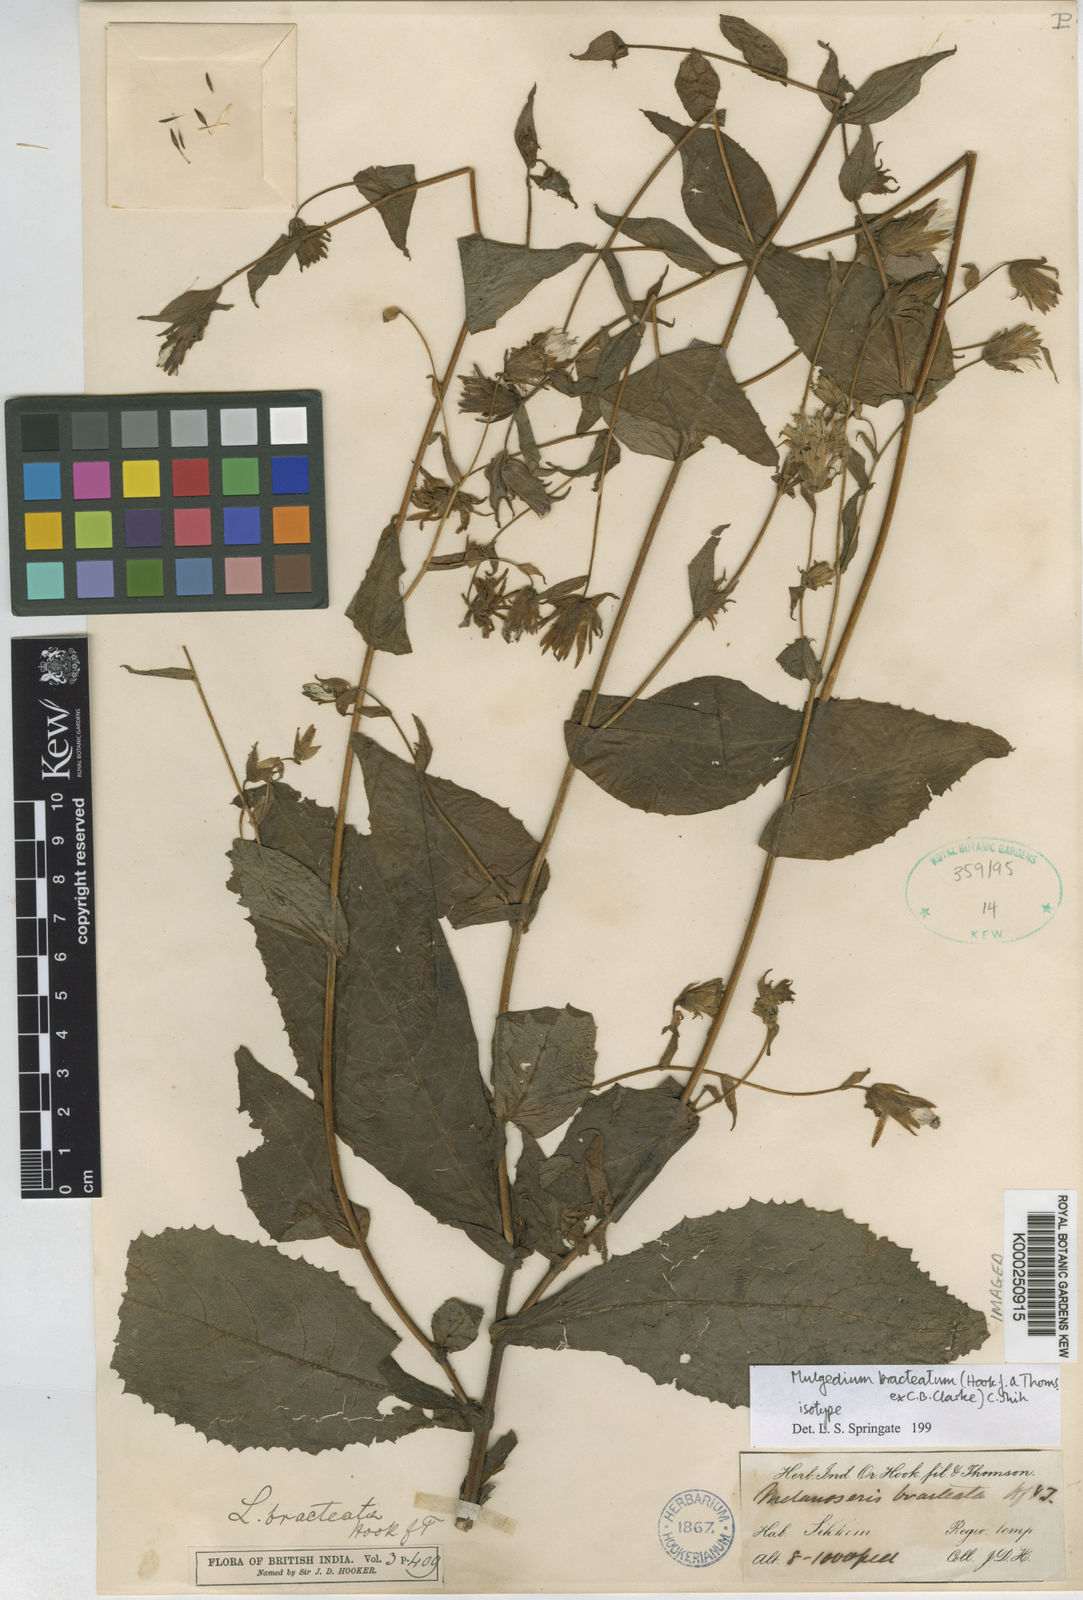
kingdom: Plantae
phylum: Tracheophyta
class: Magnoliopsida
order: Asterales
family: Asteraceae
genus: Lactuca
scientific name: Lactuca bracteata
